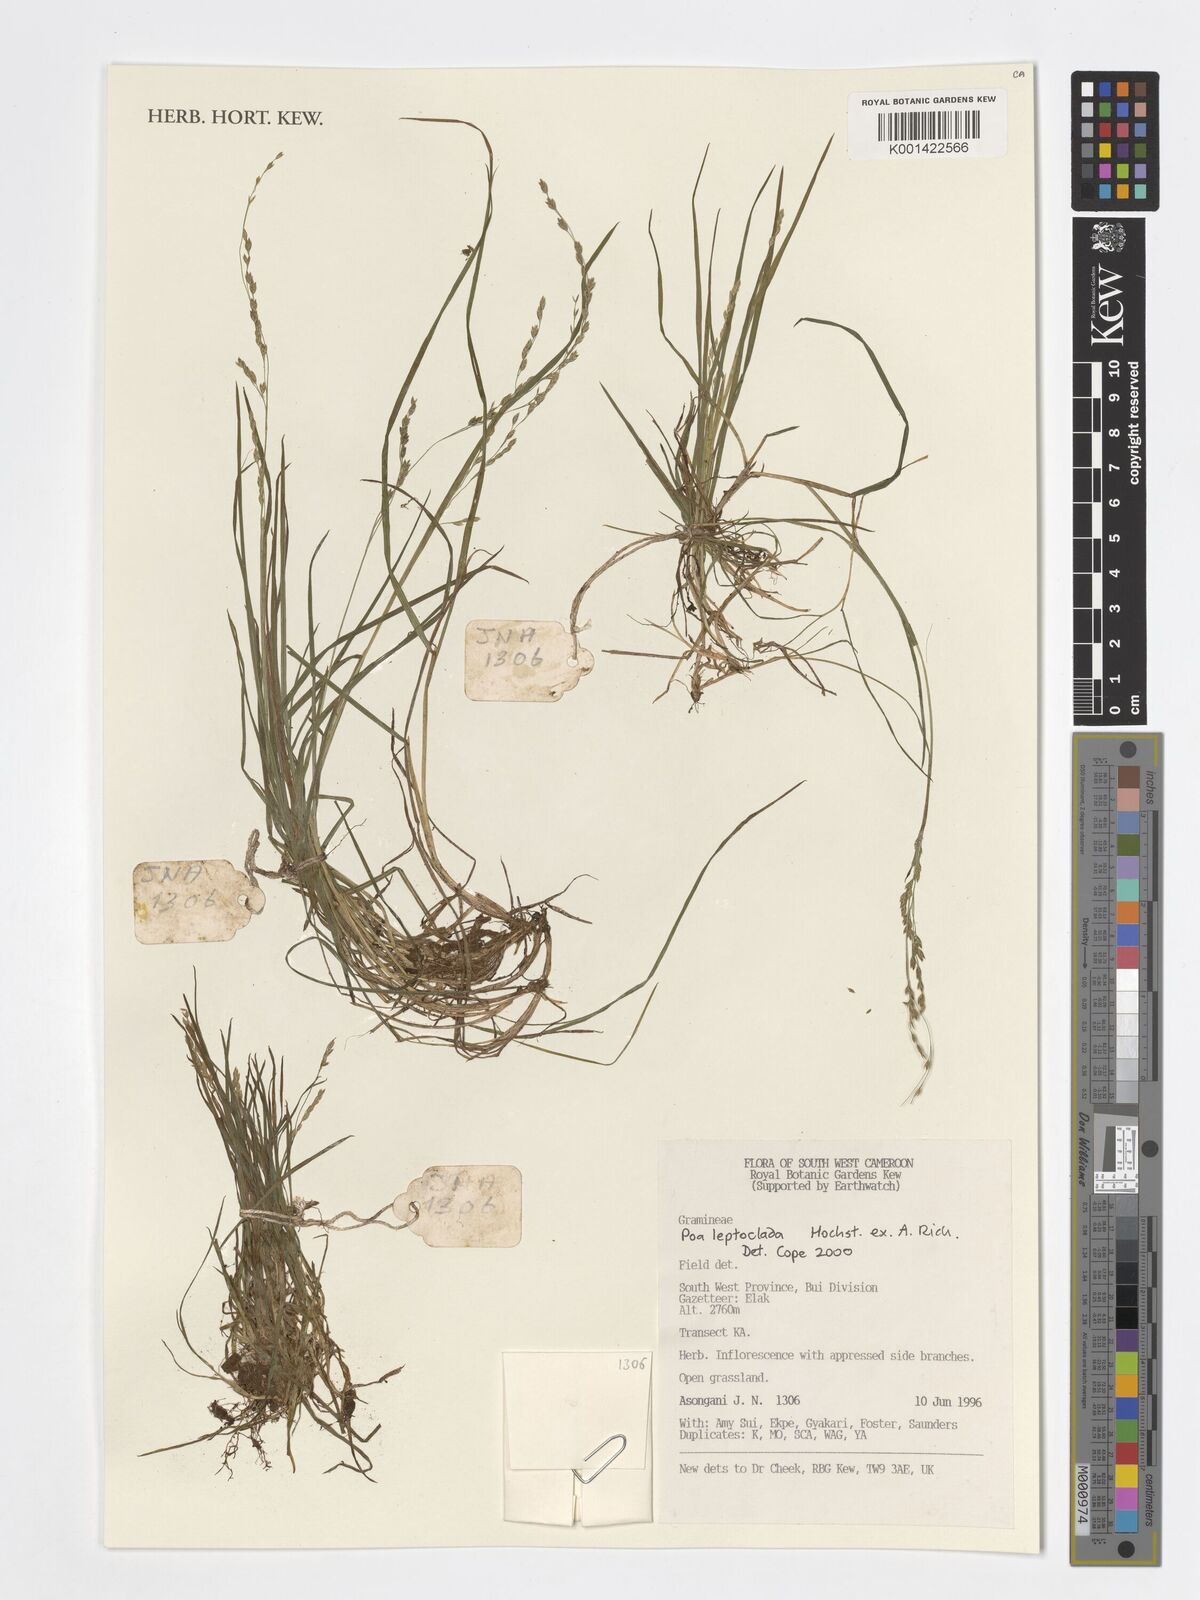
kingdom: Plantae
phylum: Tracheophyta
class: Liliopsida
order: Poales
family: Poaceae
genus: Poa
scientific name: Poa leptoclada
